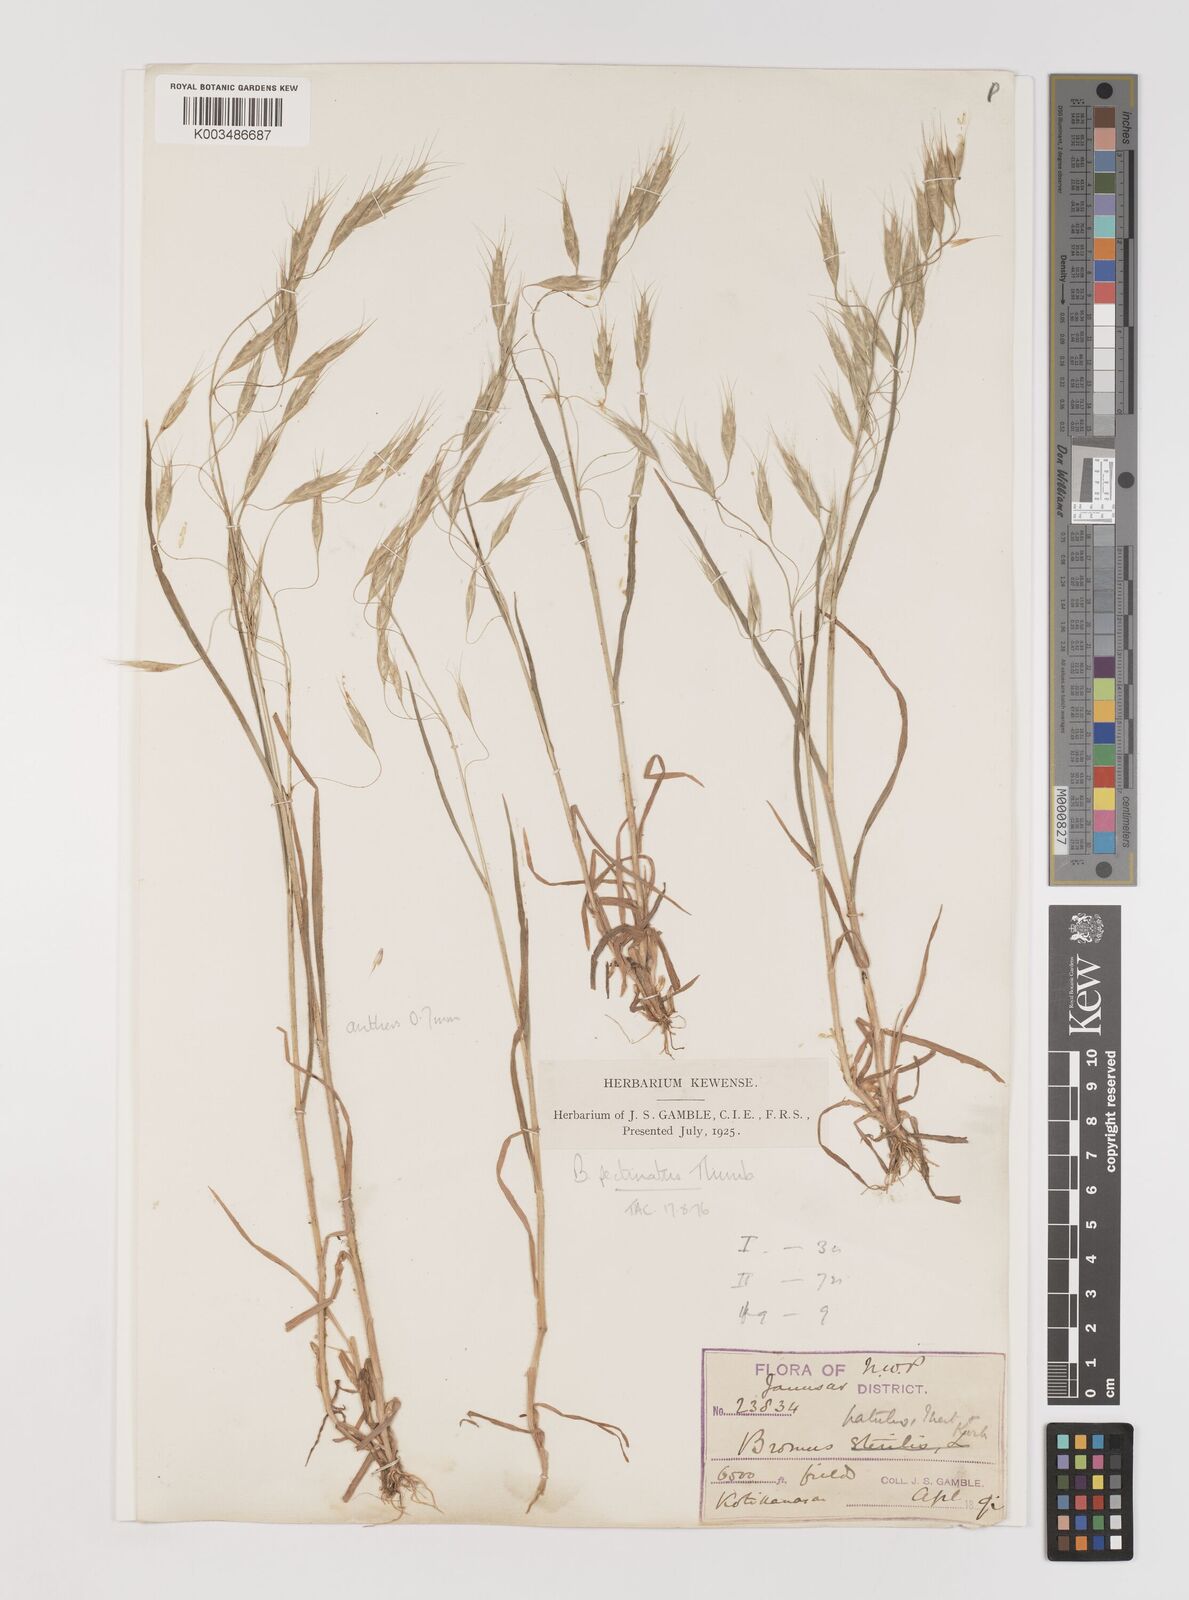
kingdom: Plantae
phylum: Tracheophyta
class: Liliopsida
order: Poales
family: Poaceae
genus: Bromus
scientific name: Bromus pectinatus
